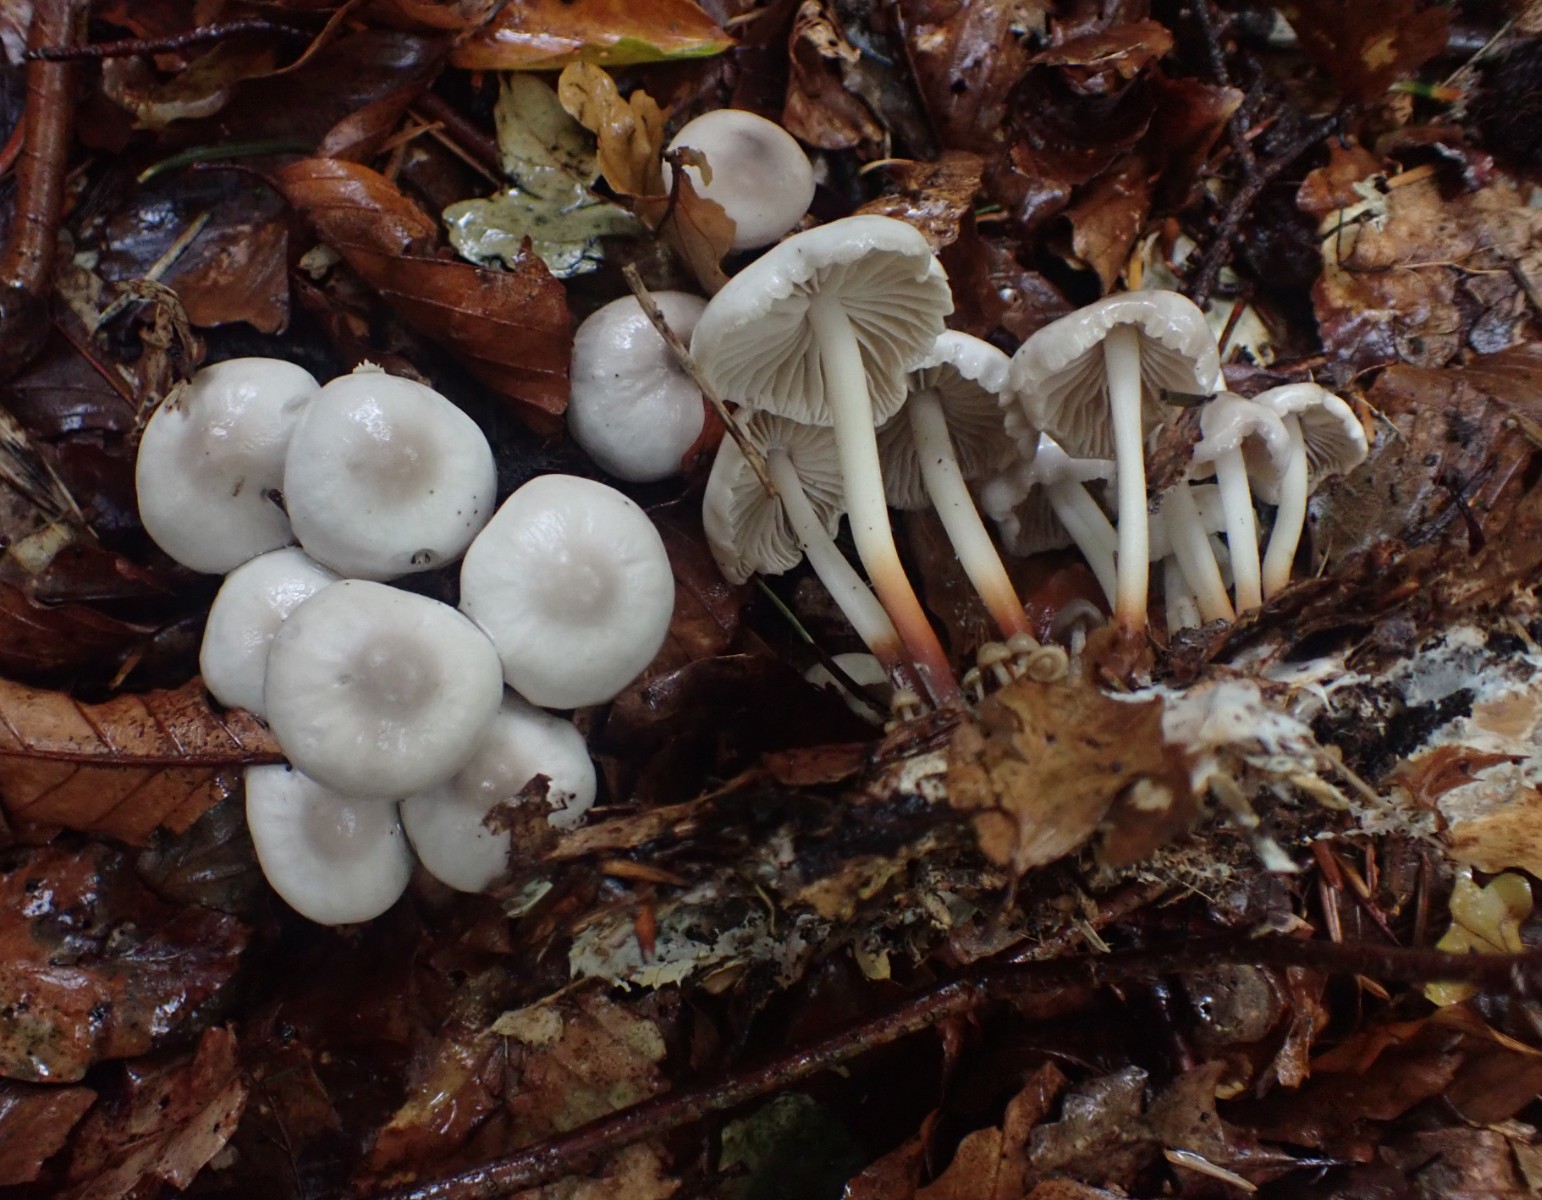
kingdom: Fungi
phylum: Basidiomycota
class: Agaricomycetes
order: Agaricales
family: Marasmiaceae
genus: Marasmius
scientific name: Marasmius wynneae
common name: hvælvet bruskhat
